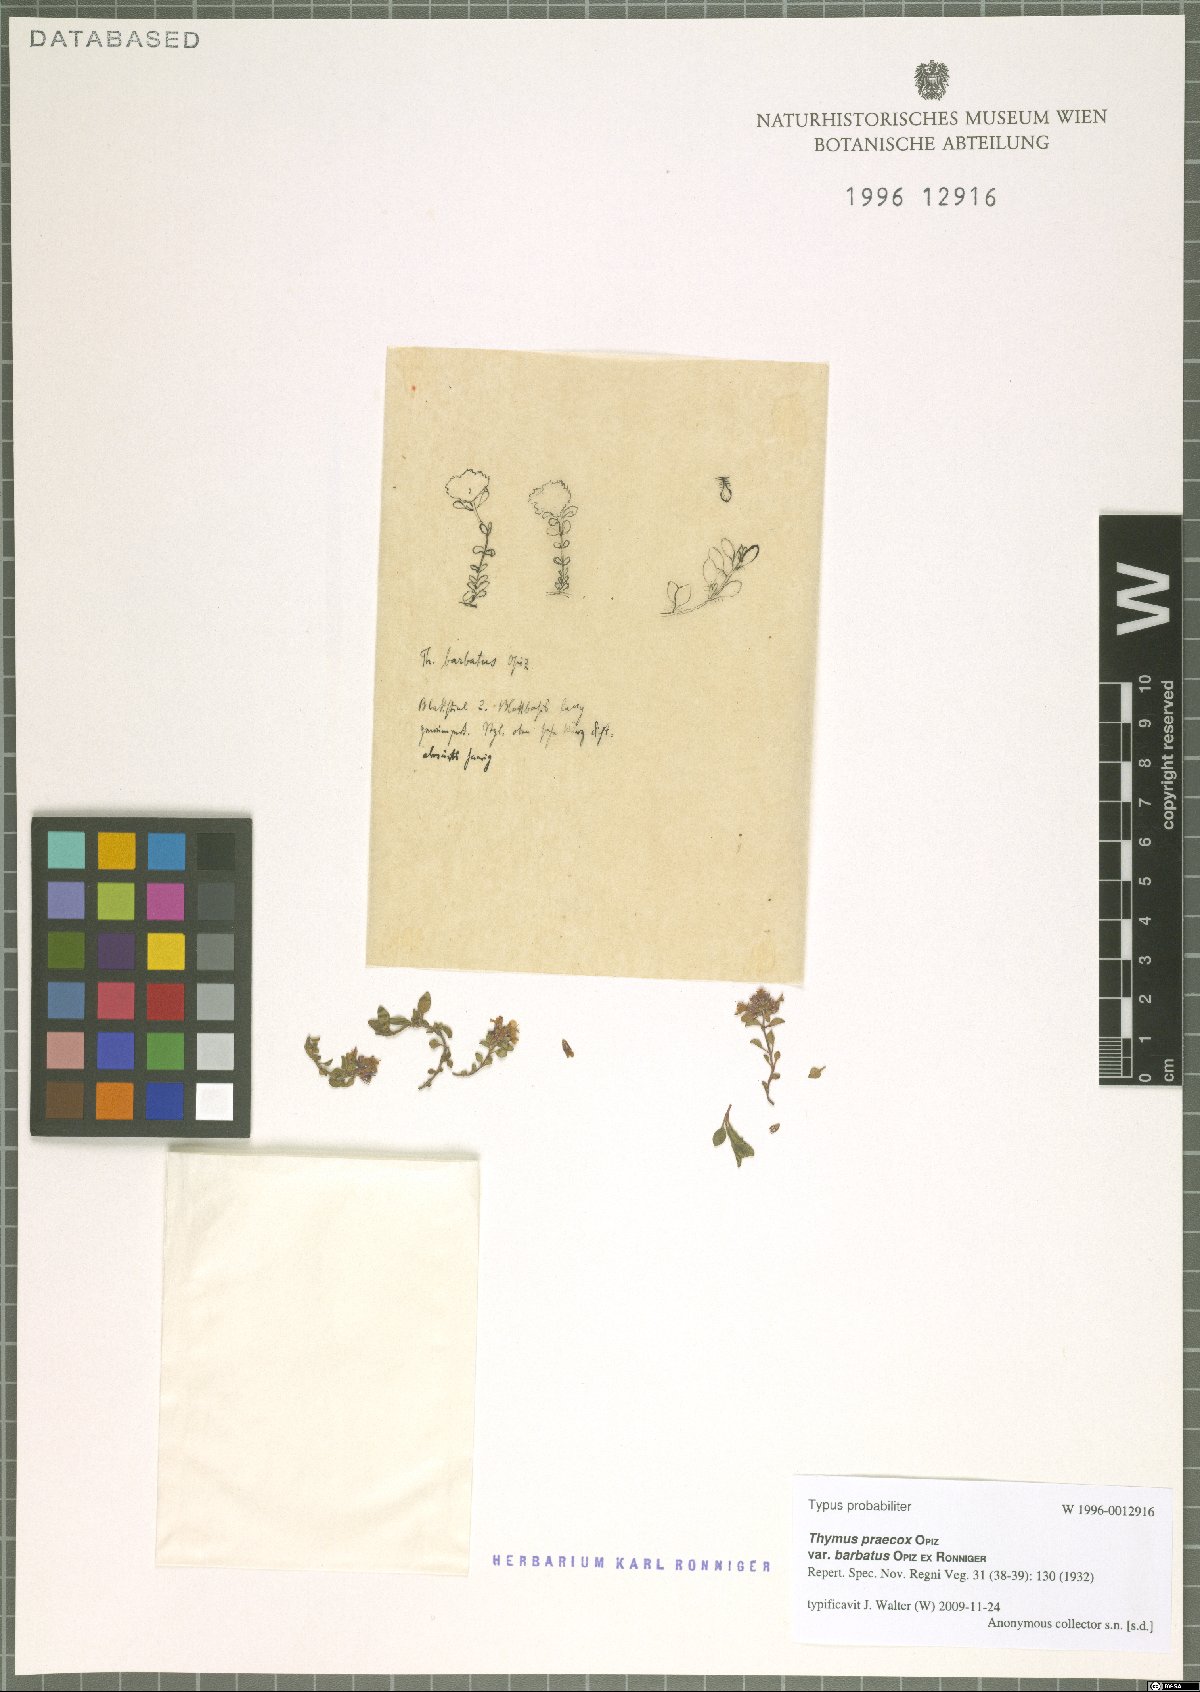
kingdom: Plantae
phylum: Tracheophyta
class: Magnoliopsida
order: Lamiales
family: Lamiaceae
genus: Thymus
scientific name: Thymus praecox
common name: Wild thyme
